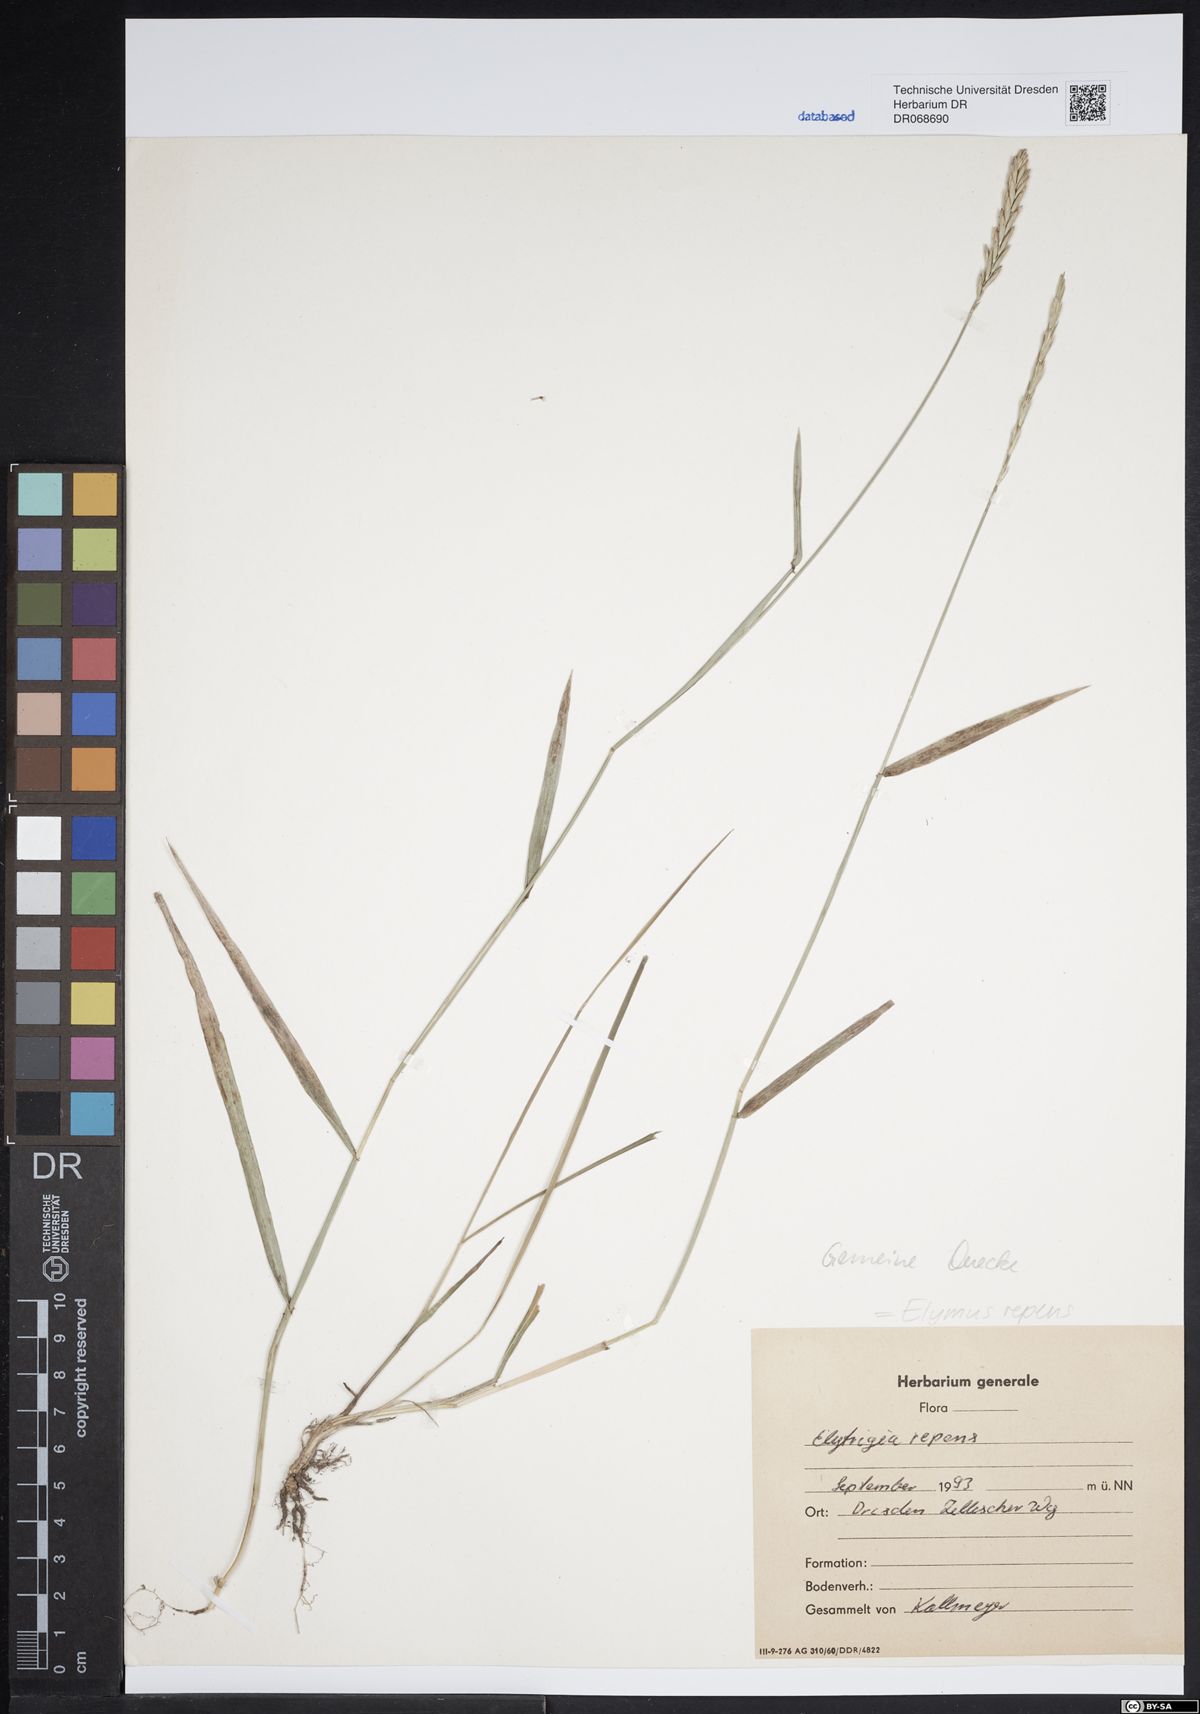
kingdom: Plantae
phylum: Tracheophyta
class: Liliopsida
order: Poales
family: Poaceae
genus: Elymus
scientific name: Elymus repens
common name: Quackgrass
